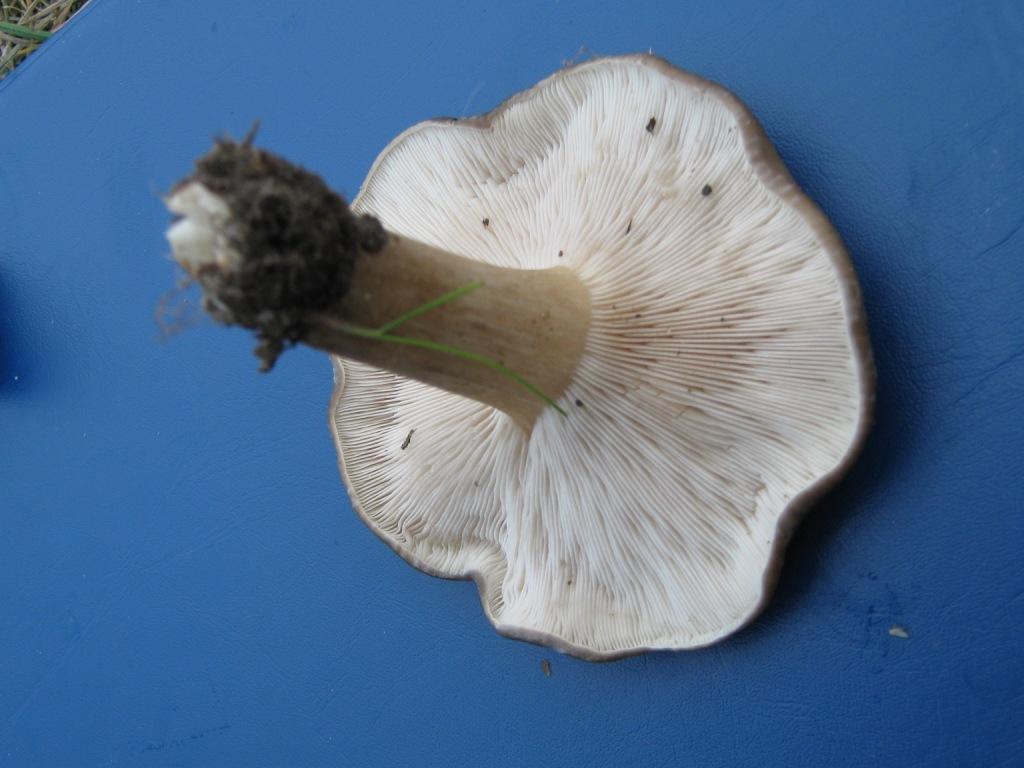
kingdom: Fungi
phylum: Basidiomycota
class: Agaricomycetes
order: Agaricales
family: Tricholomataceae
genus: Melanoleuca
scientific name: Melanoleuca rasilis
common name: eng-munkehat
